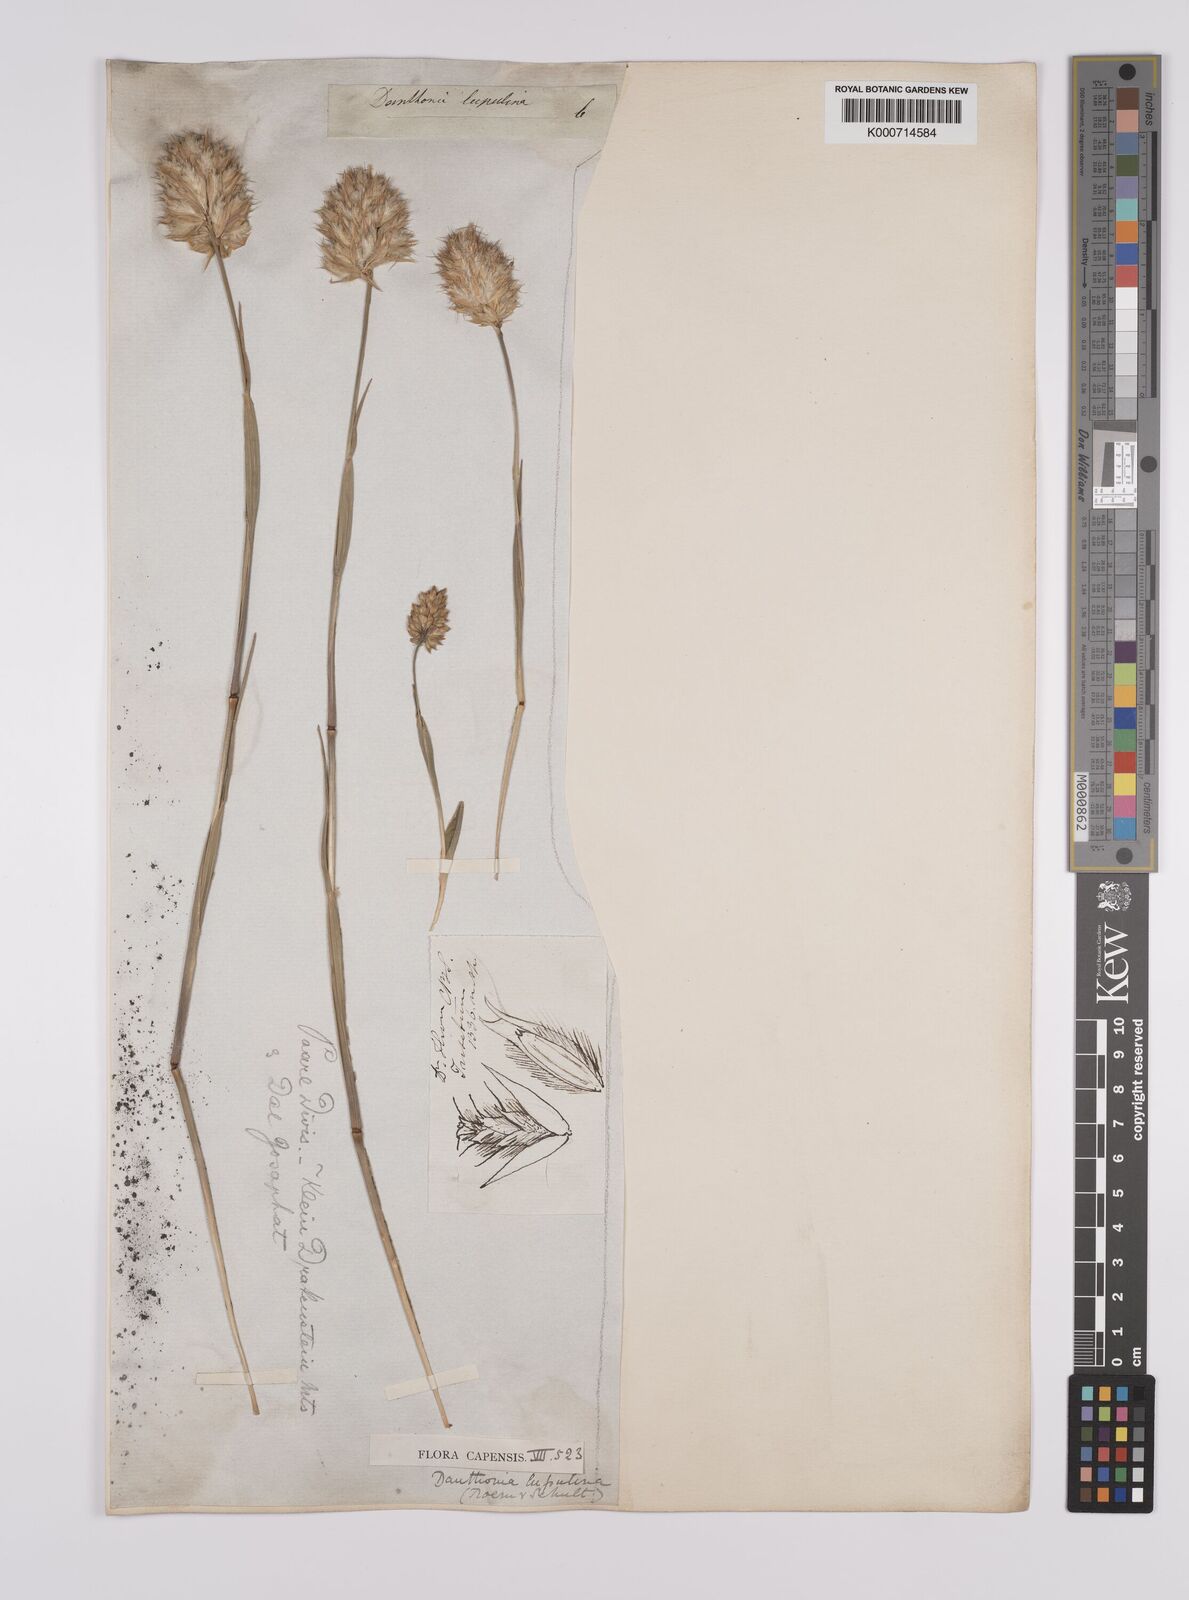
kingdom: Plantae
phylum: Tracheophyta
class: Liliopsida
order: Poales
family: Poaceae
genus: Rytidosperma
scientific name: Rytidosperma
